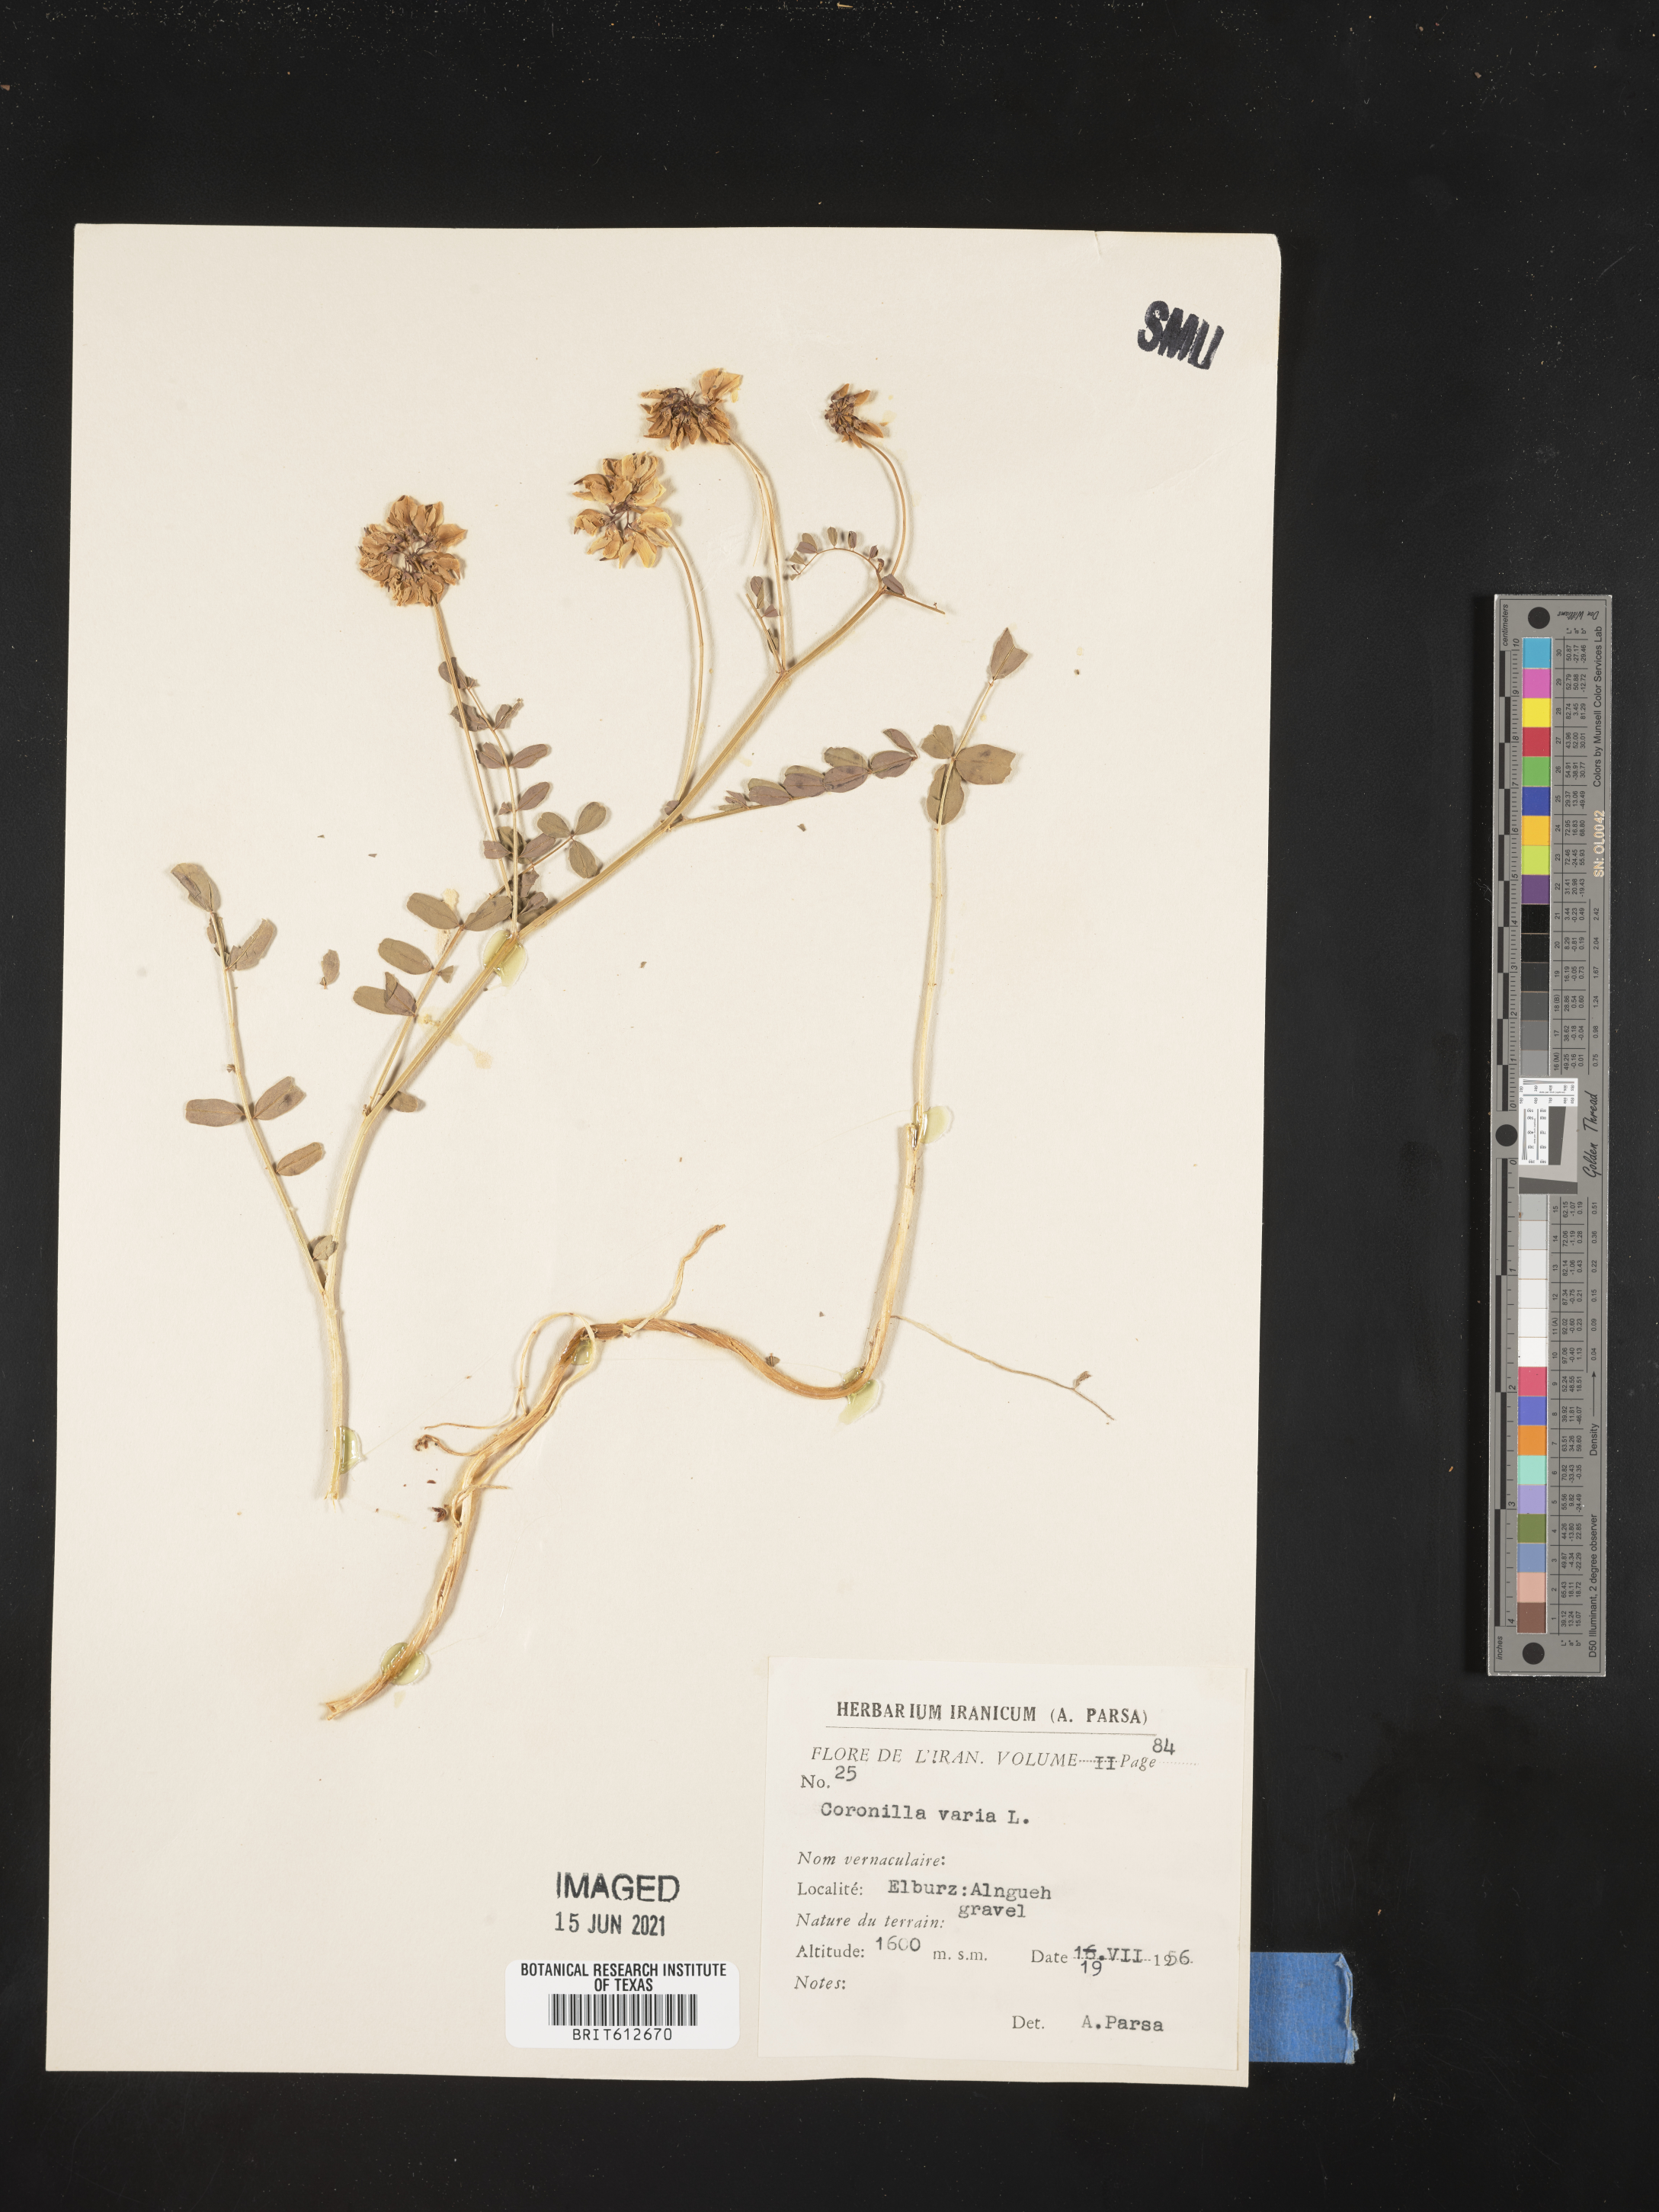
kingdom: Plantae
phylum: Tracheophyta
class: Magnoliopsida
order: Fabales
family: Fabaceae
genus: Coronilla
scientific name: Coronilla varia
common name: Crownvetch
